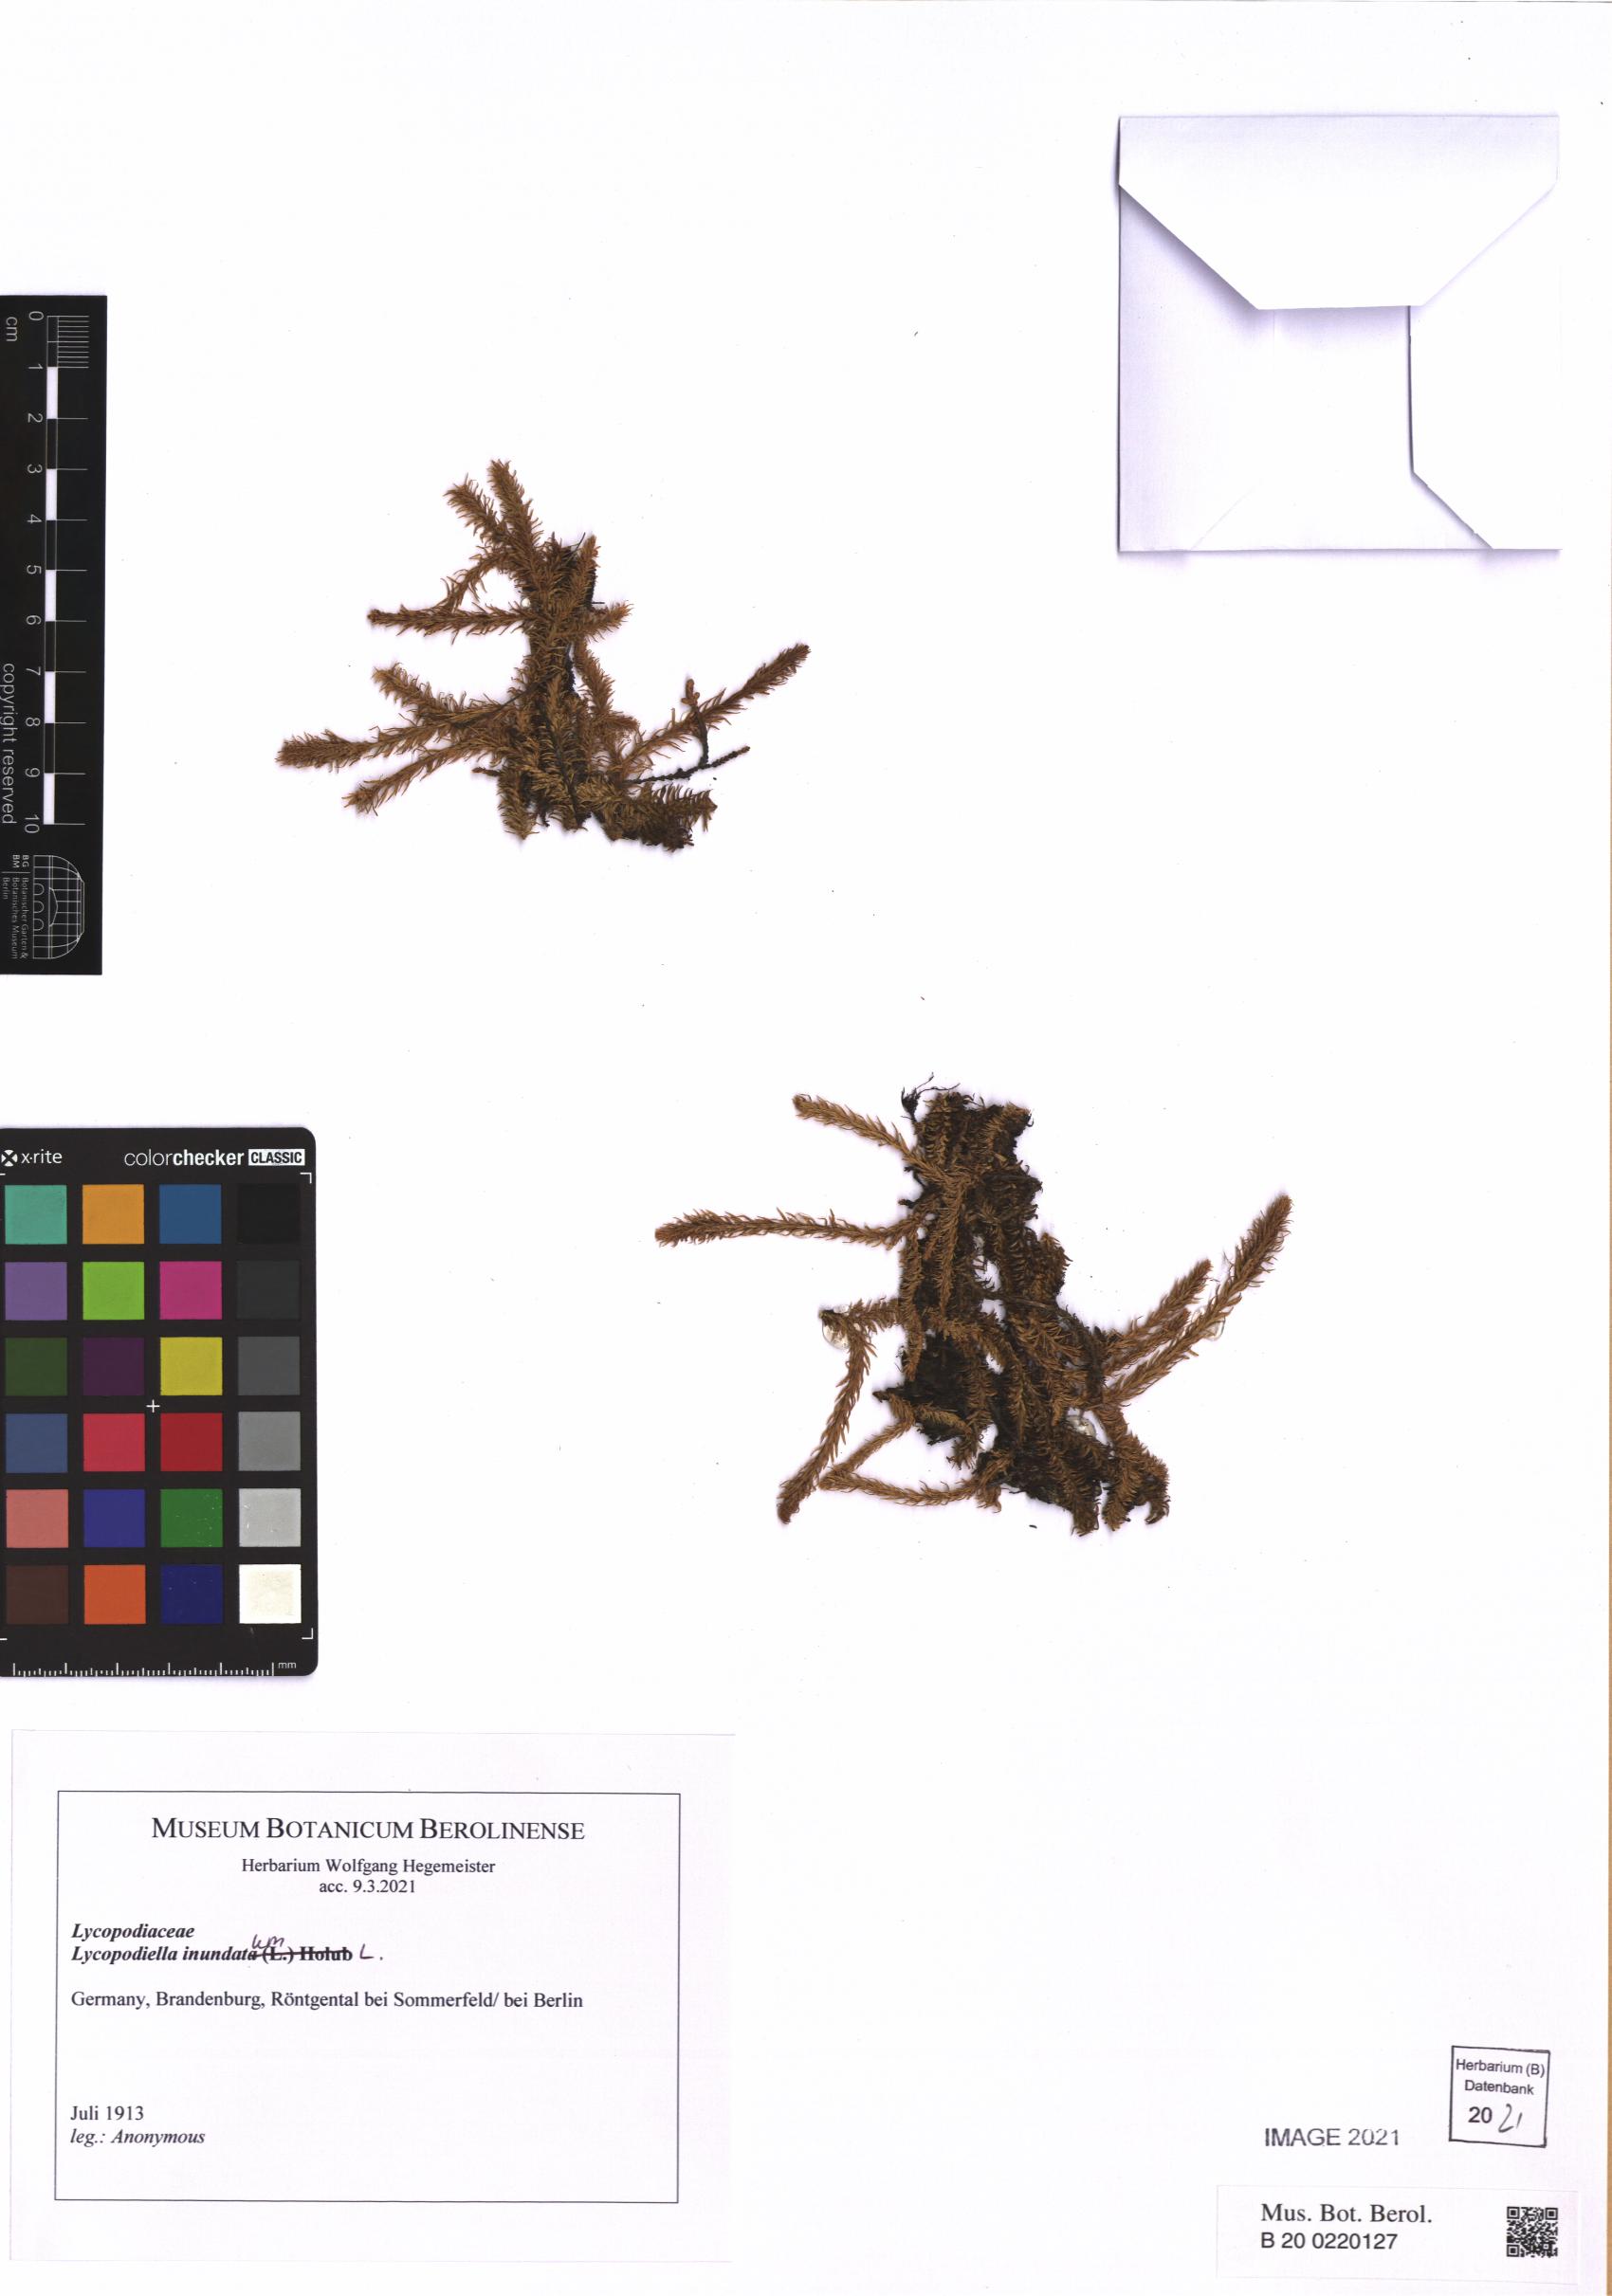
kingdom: Plantae
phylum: Tracheophyta
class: Lycopodiopsida
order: Lycopodiales
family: Lycopodiaceae
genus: Lycopodiella
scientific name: Lycopodiella inundata
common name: Marsh clubmoss
